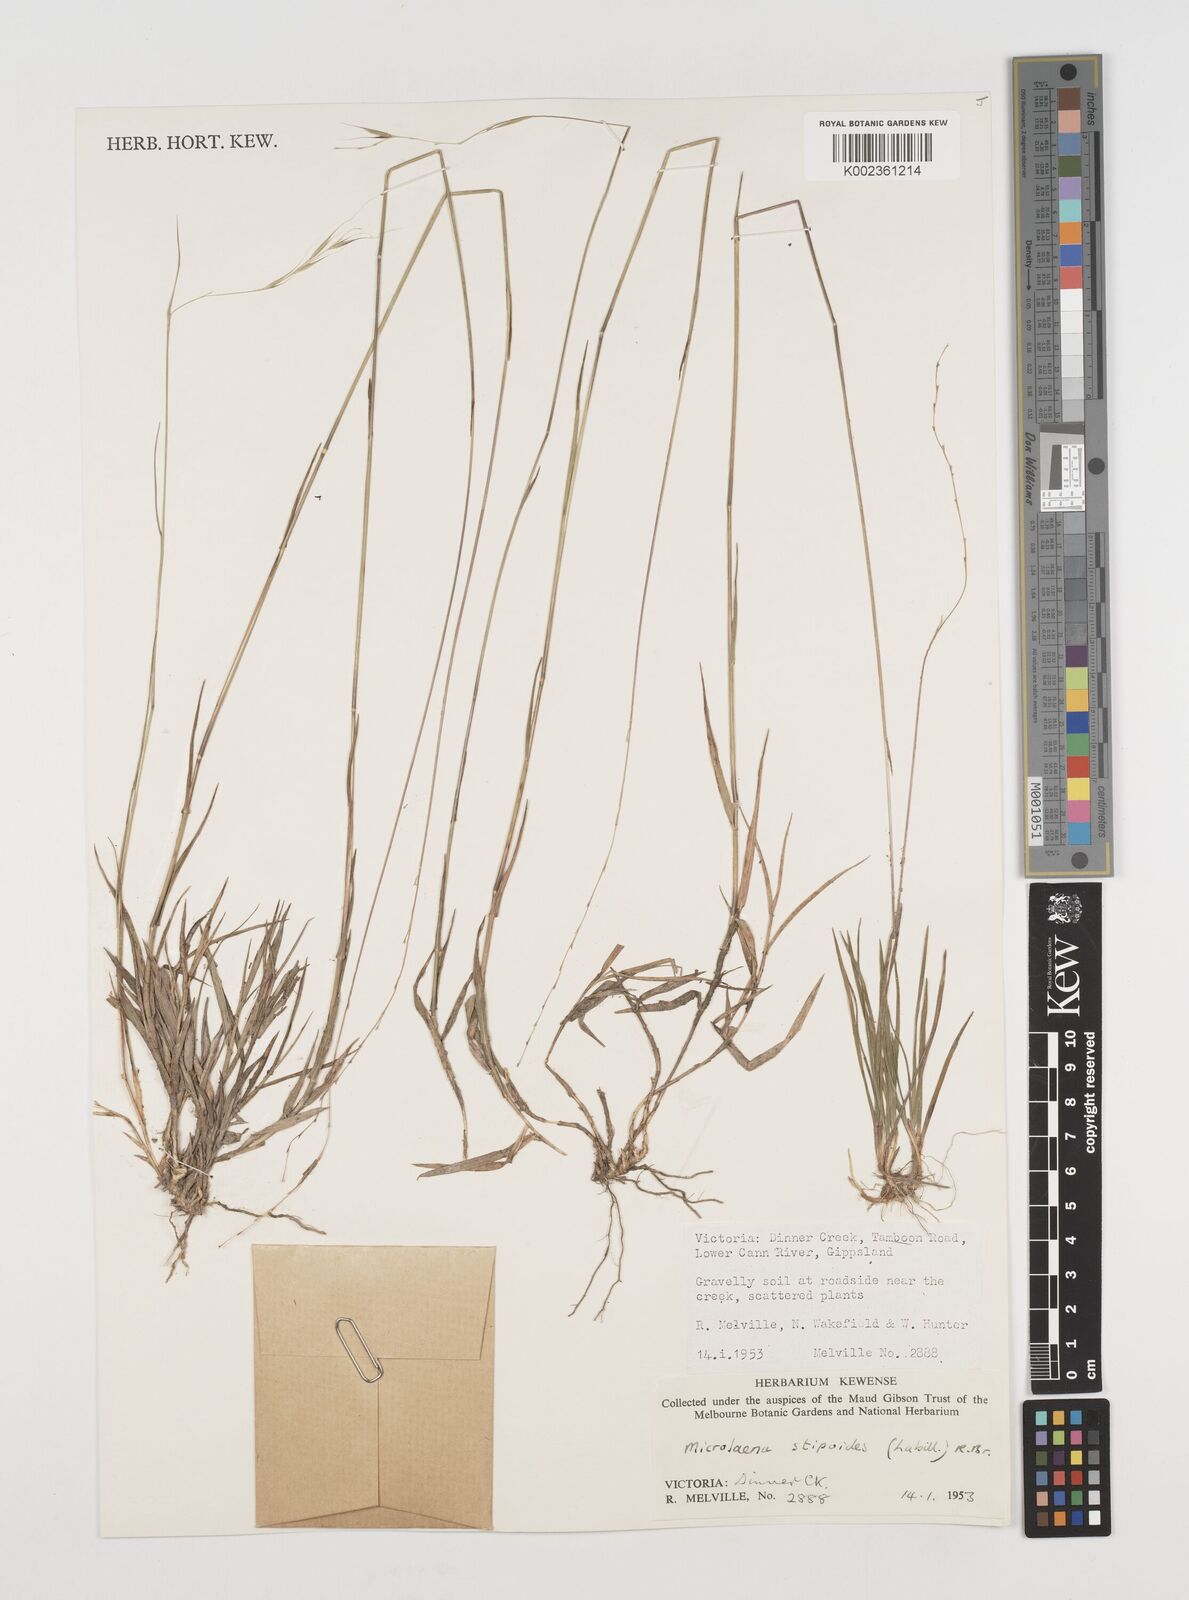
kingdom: Plantae
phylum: Tracheophyta
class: Liliopsida
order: Poales
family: Poaceae
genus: Microlaena
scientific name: Microlaena stipoides
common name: Meadow ricegrass
